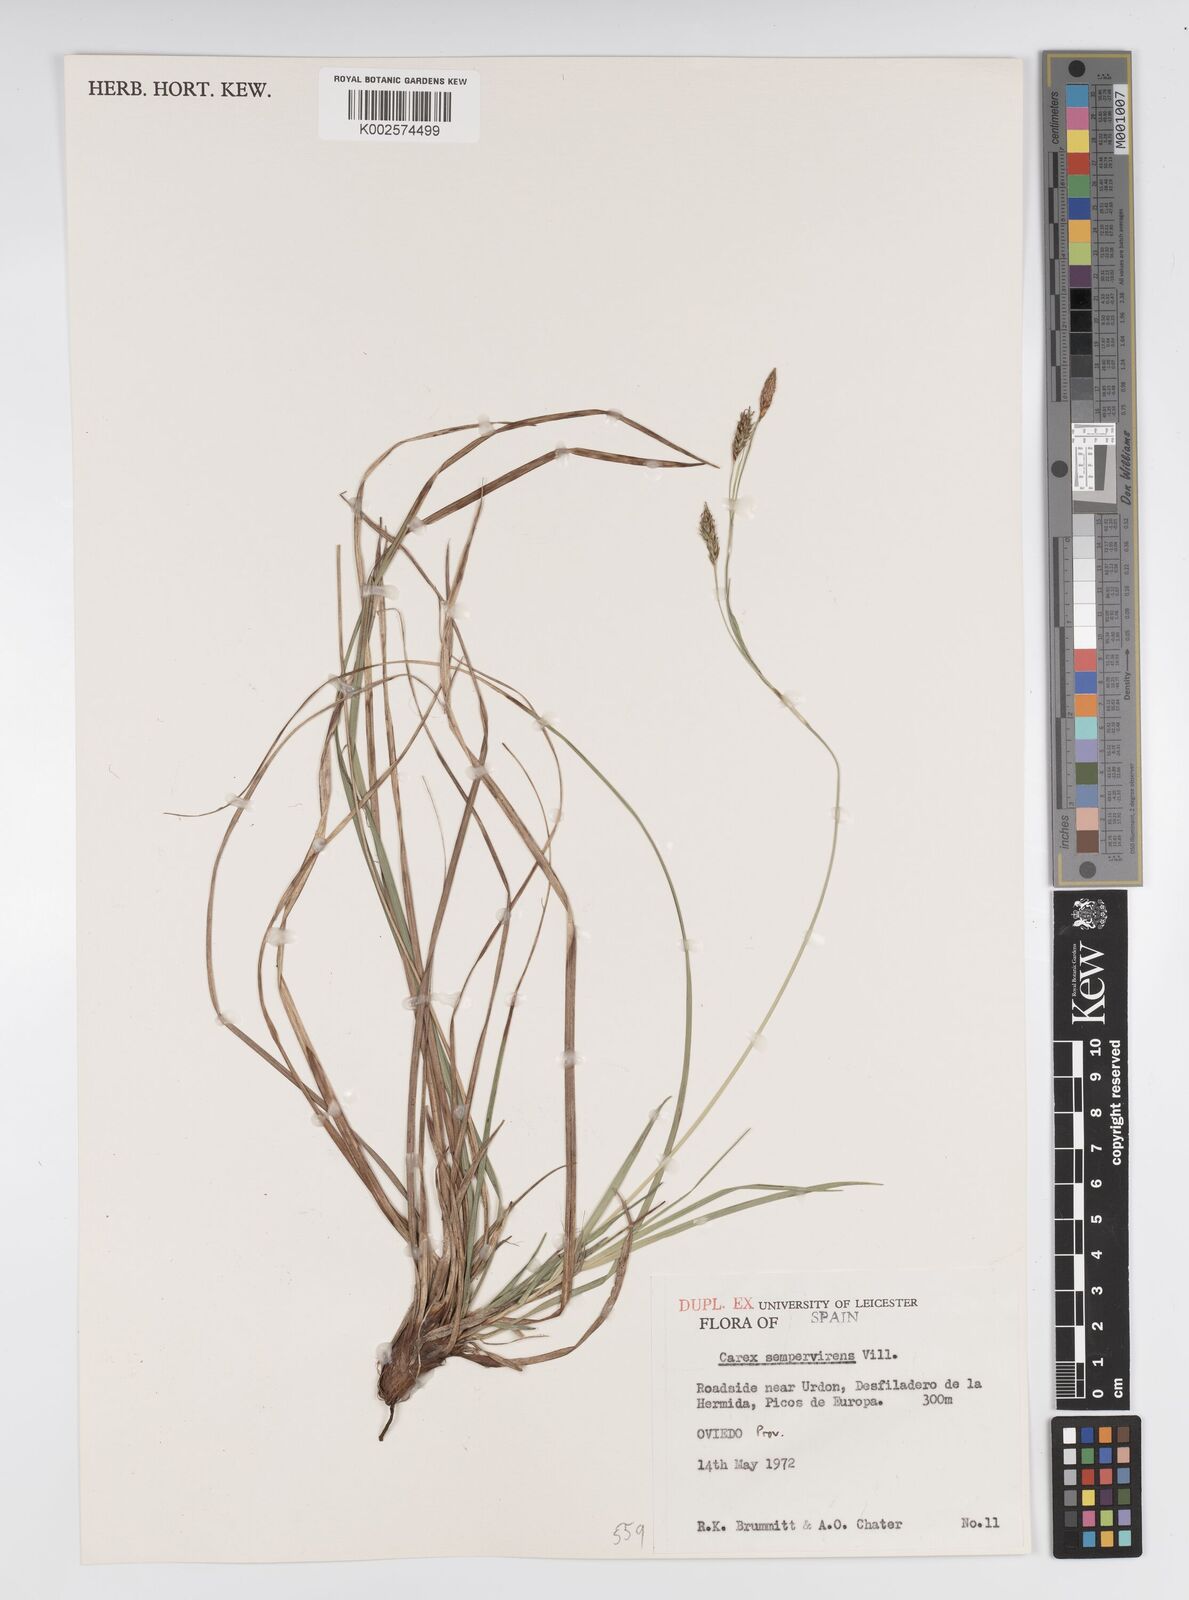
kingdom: Plantae
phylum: Tracheophyta
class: Liliopsida
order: Poales
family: Cyperaceae
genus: Carex
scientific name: Carex sempervirens
